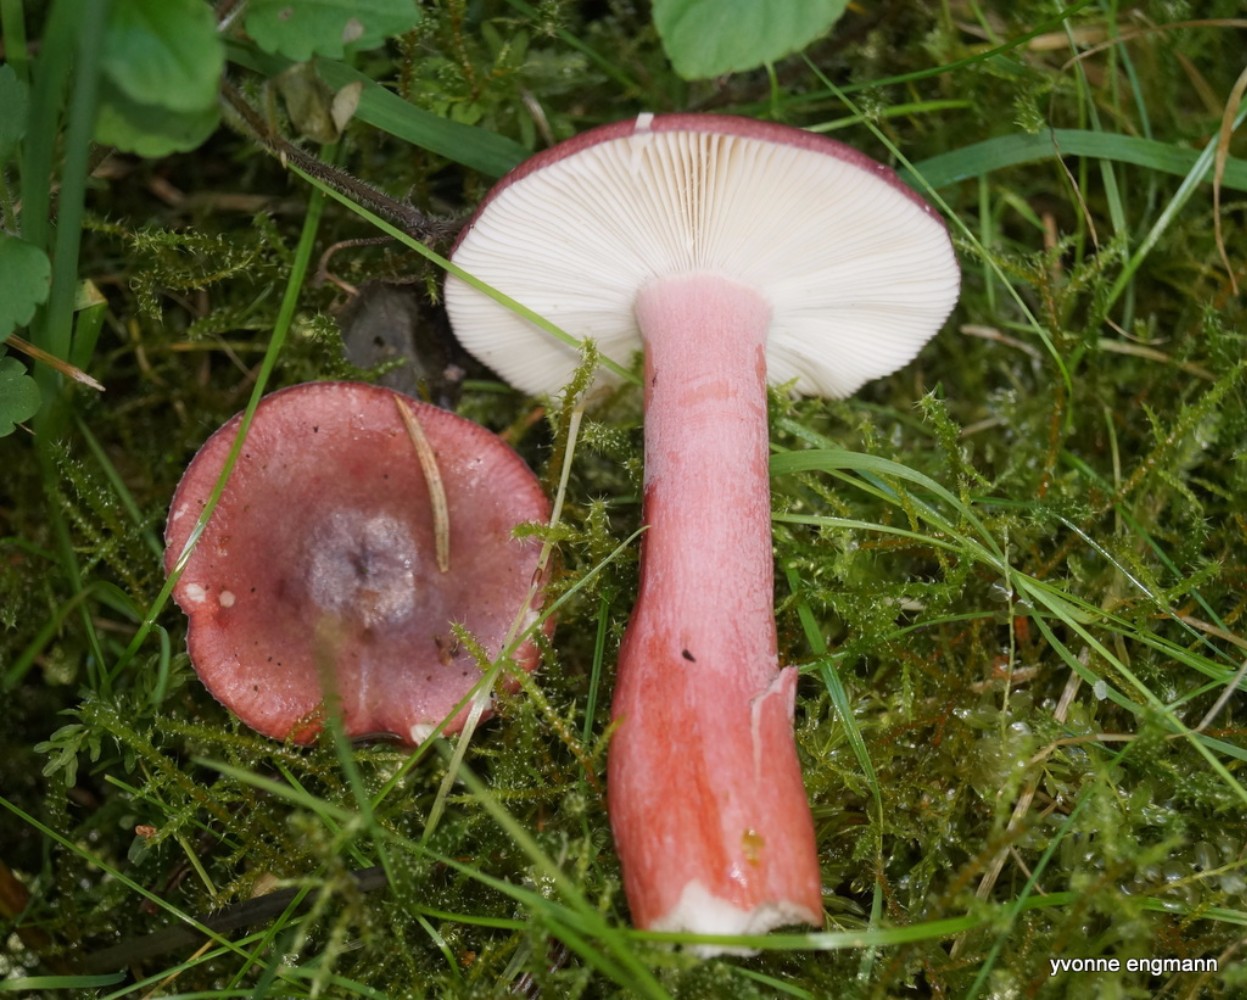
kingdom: Fungi
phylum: Basidiomycota
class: Agaricomycetes
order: Russulales
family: Russulaceae
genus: Russula
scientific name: Russula queletii
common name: Quélets skørhat
